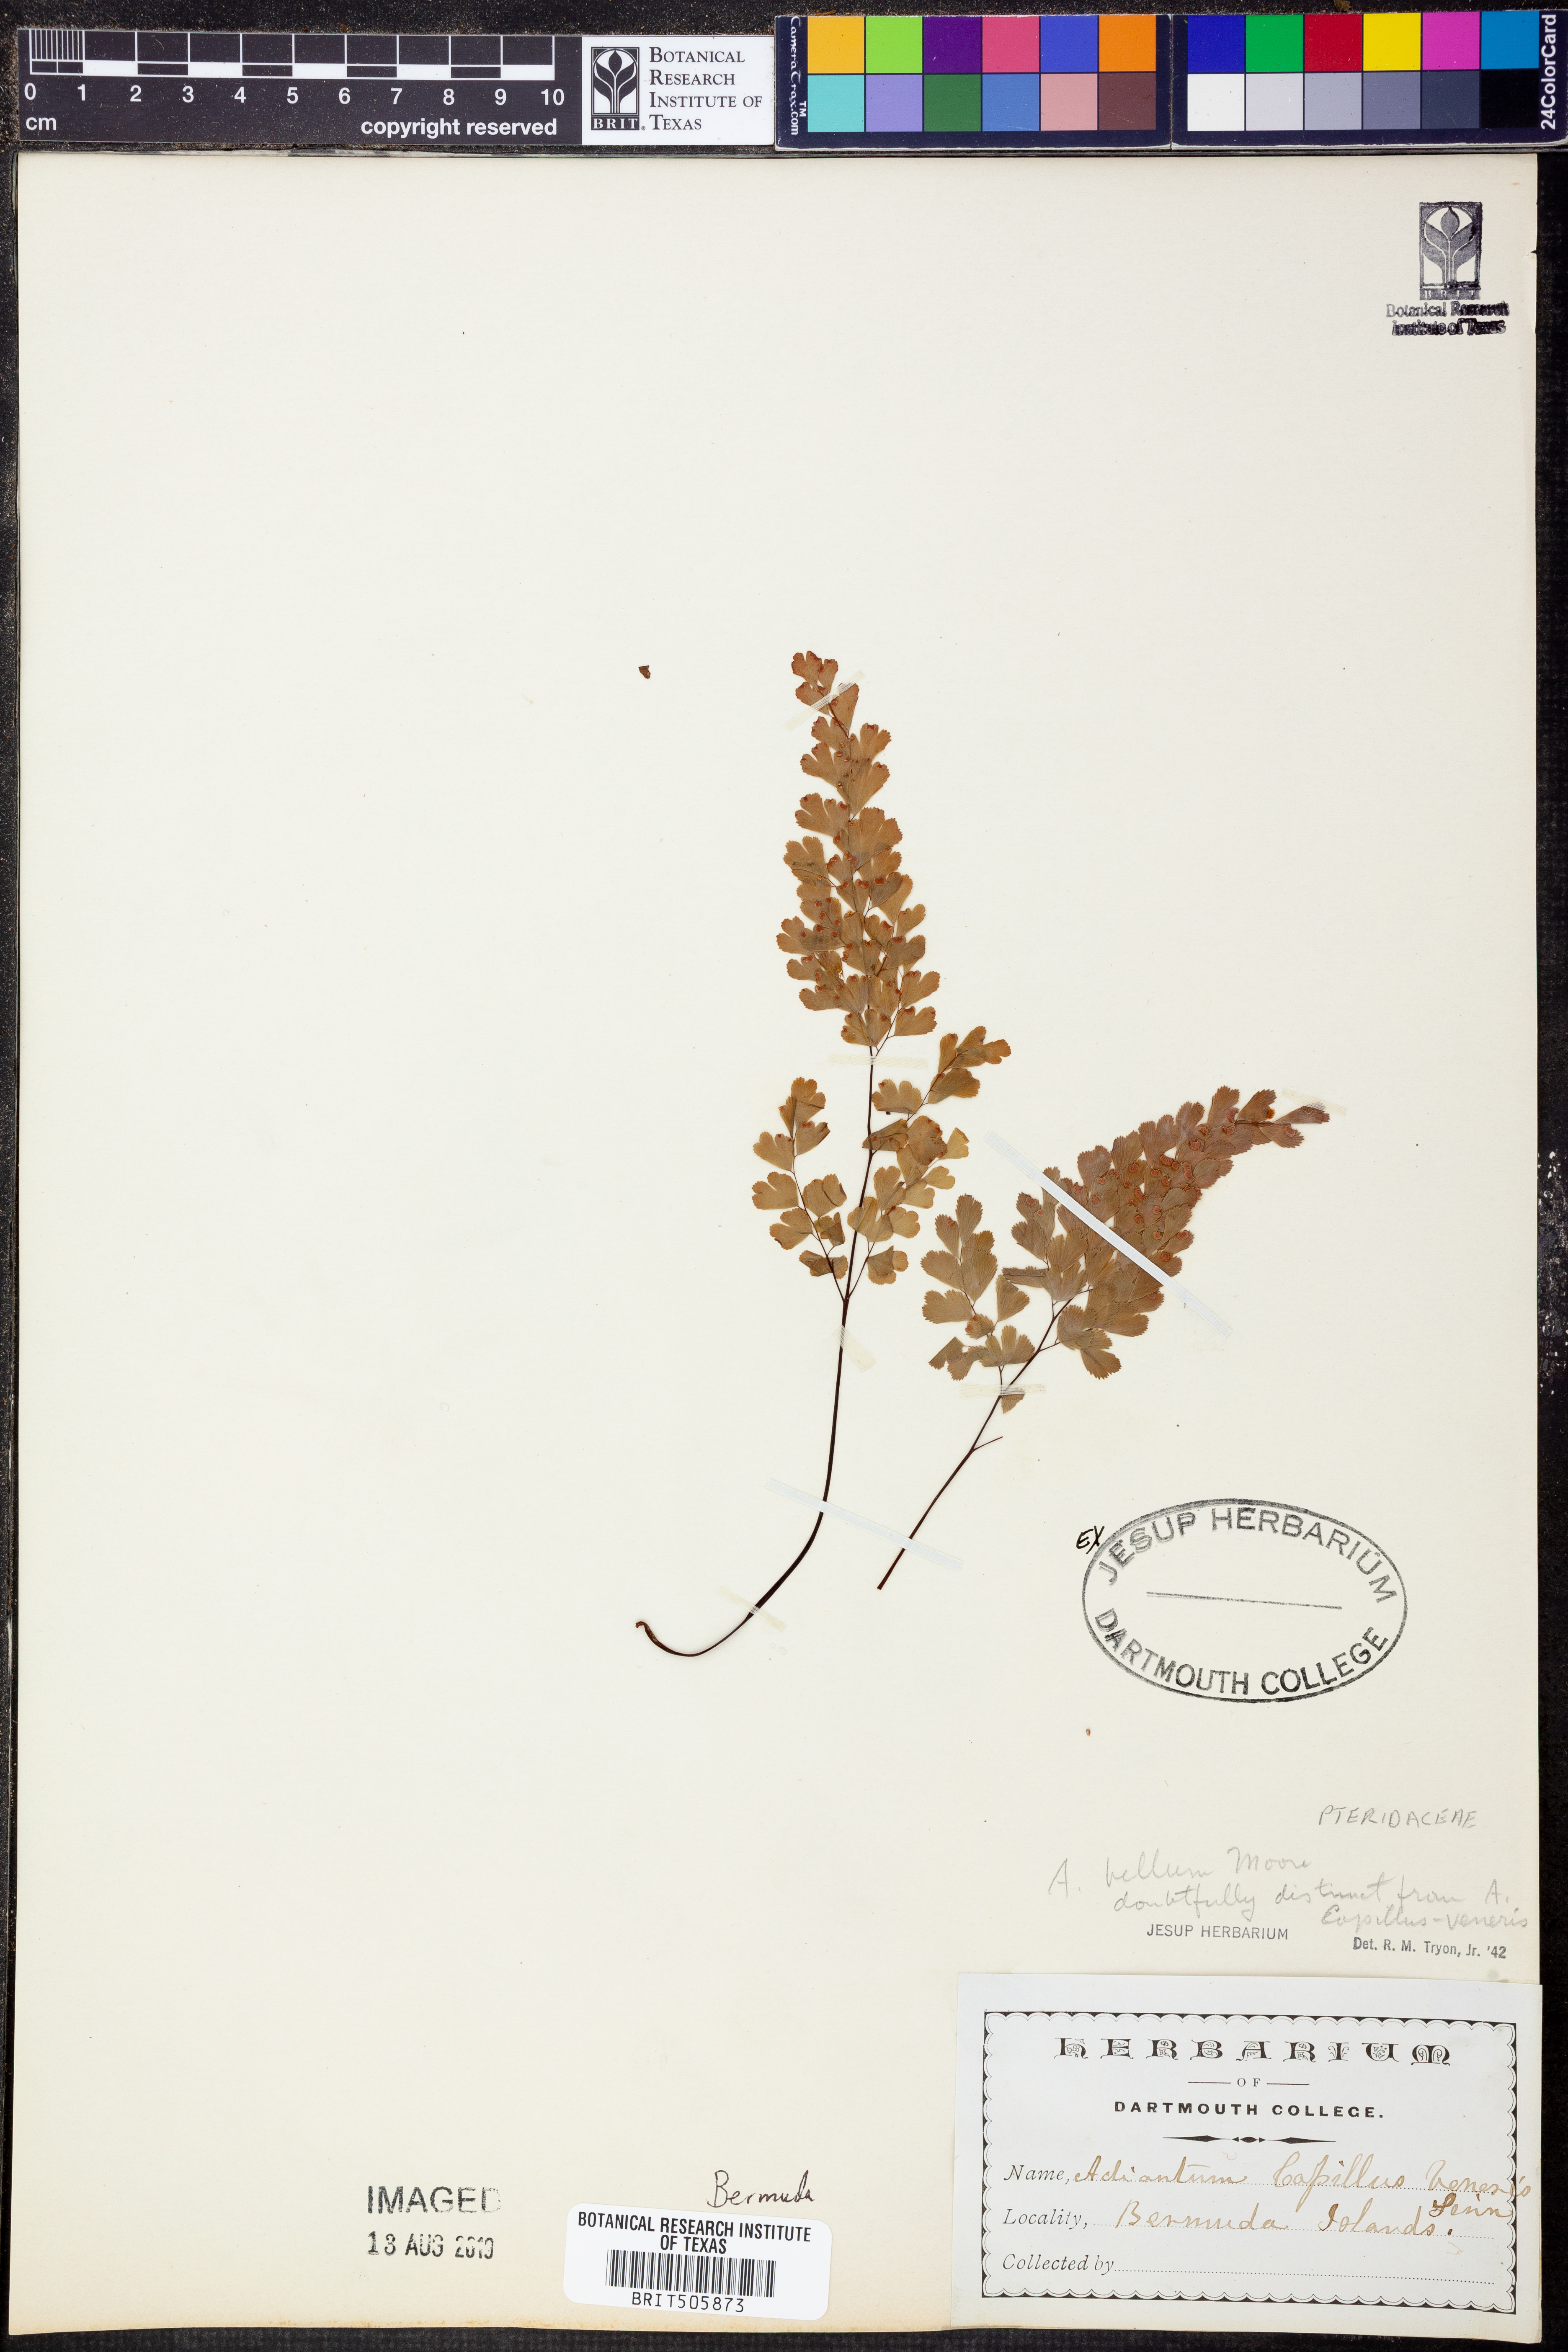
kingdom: Plantae
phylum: Tracheophyta
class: Polypodiopsida
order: Polypodiales
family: Pteridaceae
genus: Adiantum
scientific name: Adiantum bellum
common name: Bermuda maidenhair fern
